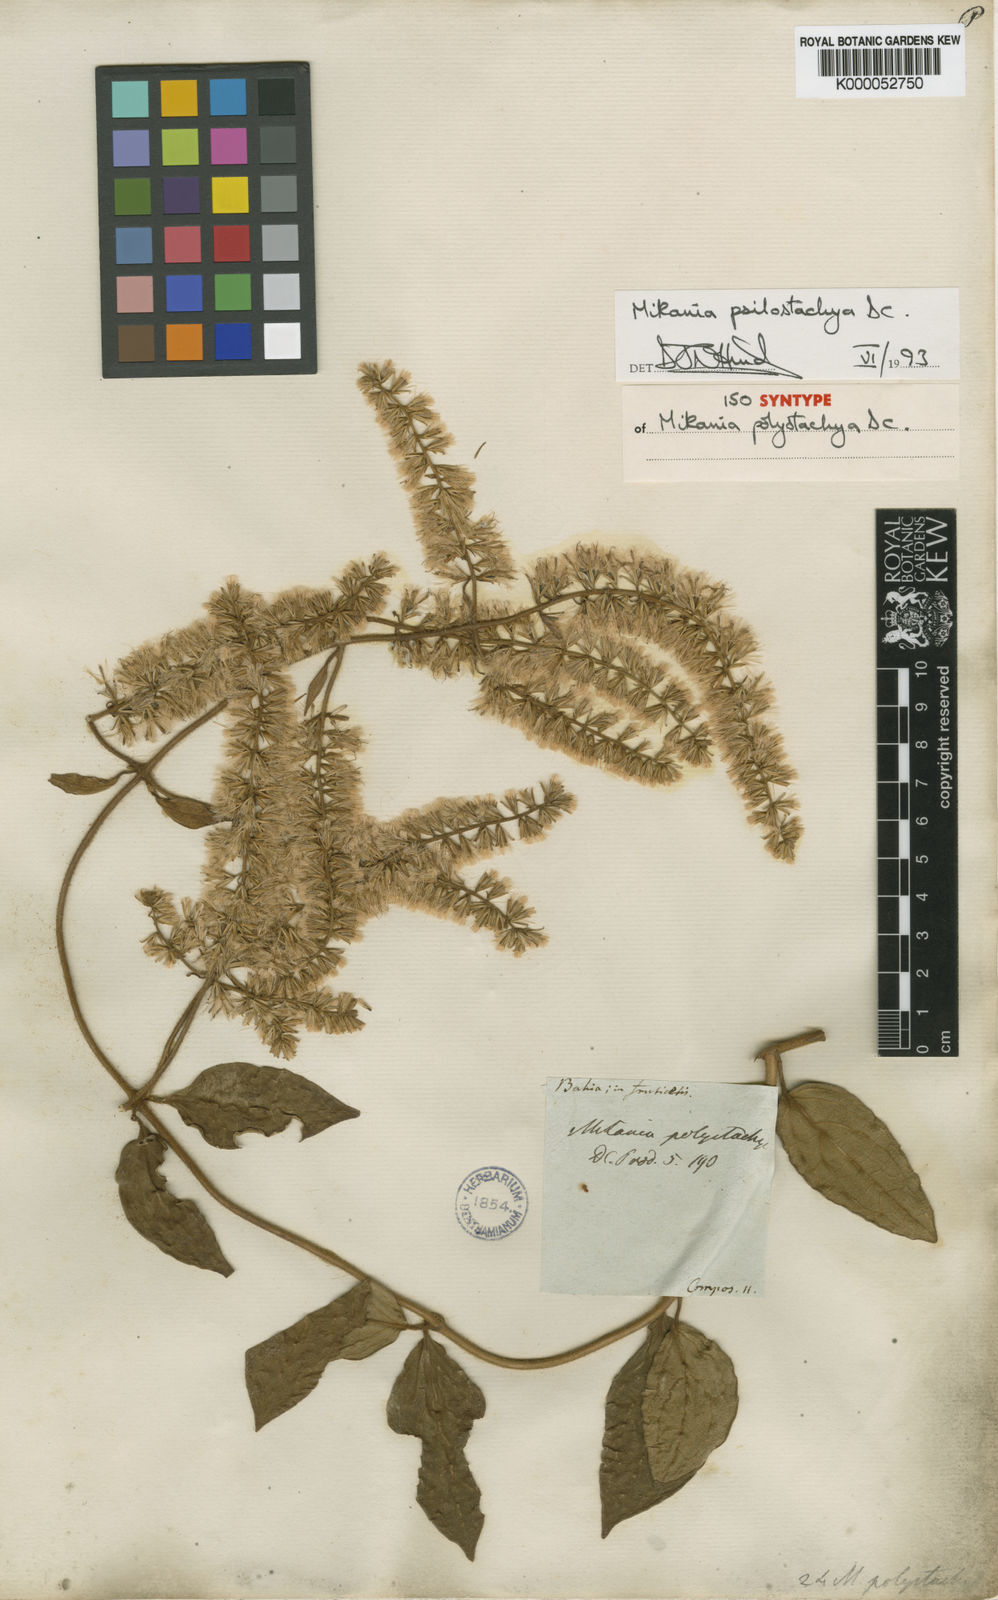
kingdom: Plantae
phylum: Tracheophyta
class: Magnoliopsida
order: Asterales
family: Asteraceae
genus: Mikania
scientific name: Mikania psilostachya
